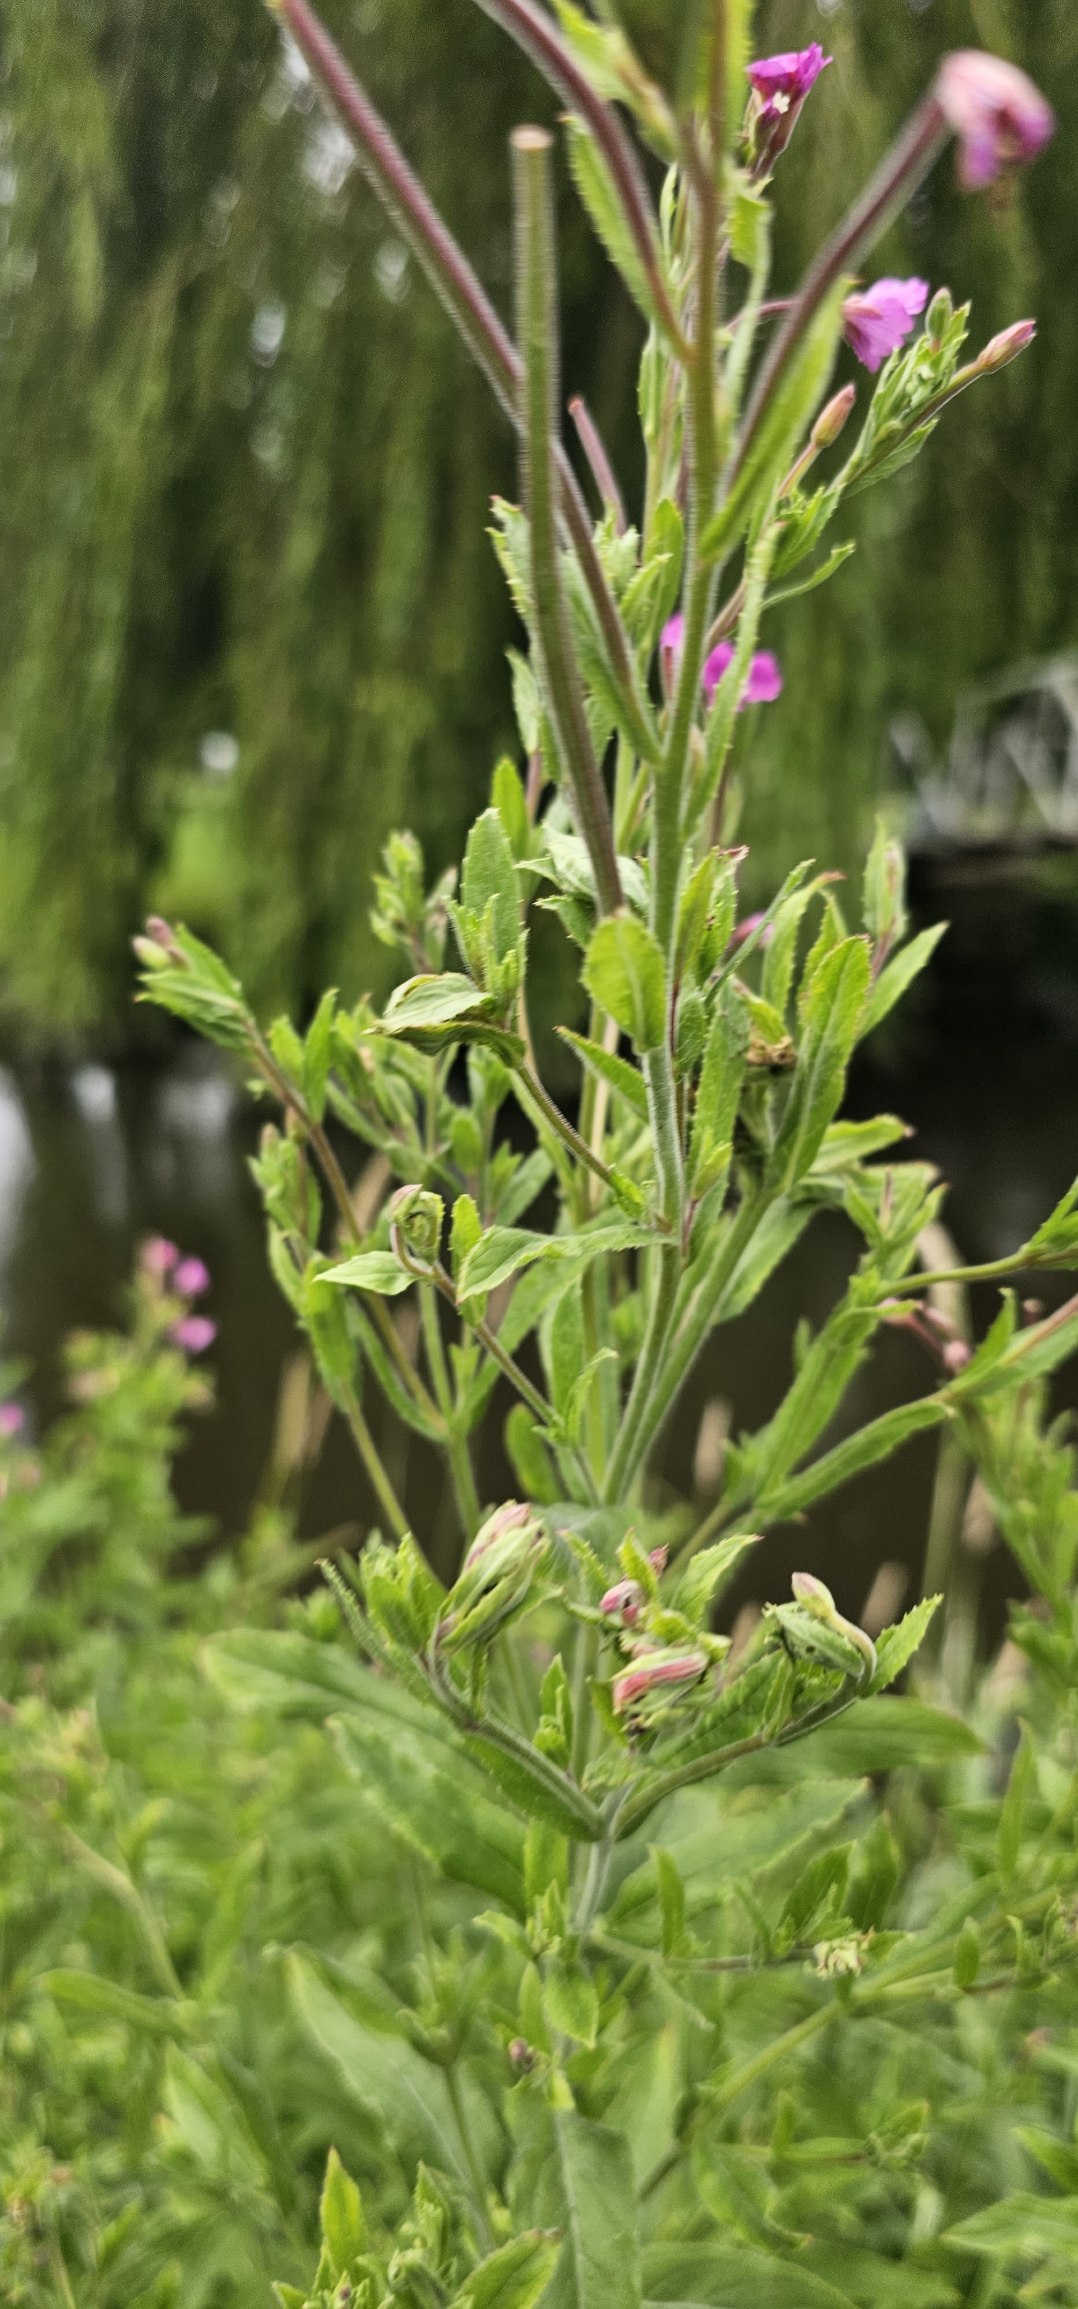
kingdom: Plantae
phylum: Tracheophyta
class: Magnoliopsida
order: Myrtales
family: Onagraceae
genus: Epilobium
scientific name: Epilobium hirsutum
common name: Lådden dueurt
